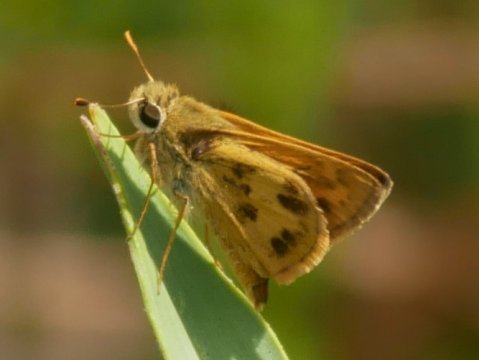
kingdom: Animalia
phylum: Arthropoda
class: Insecta
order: Lepidoptera
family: Hesperiidae
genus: Polites
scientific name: Polites vibex
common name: Whirlabout
